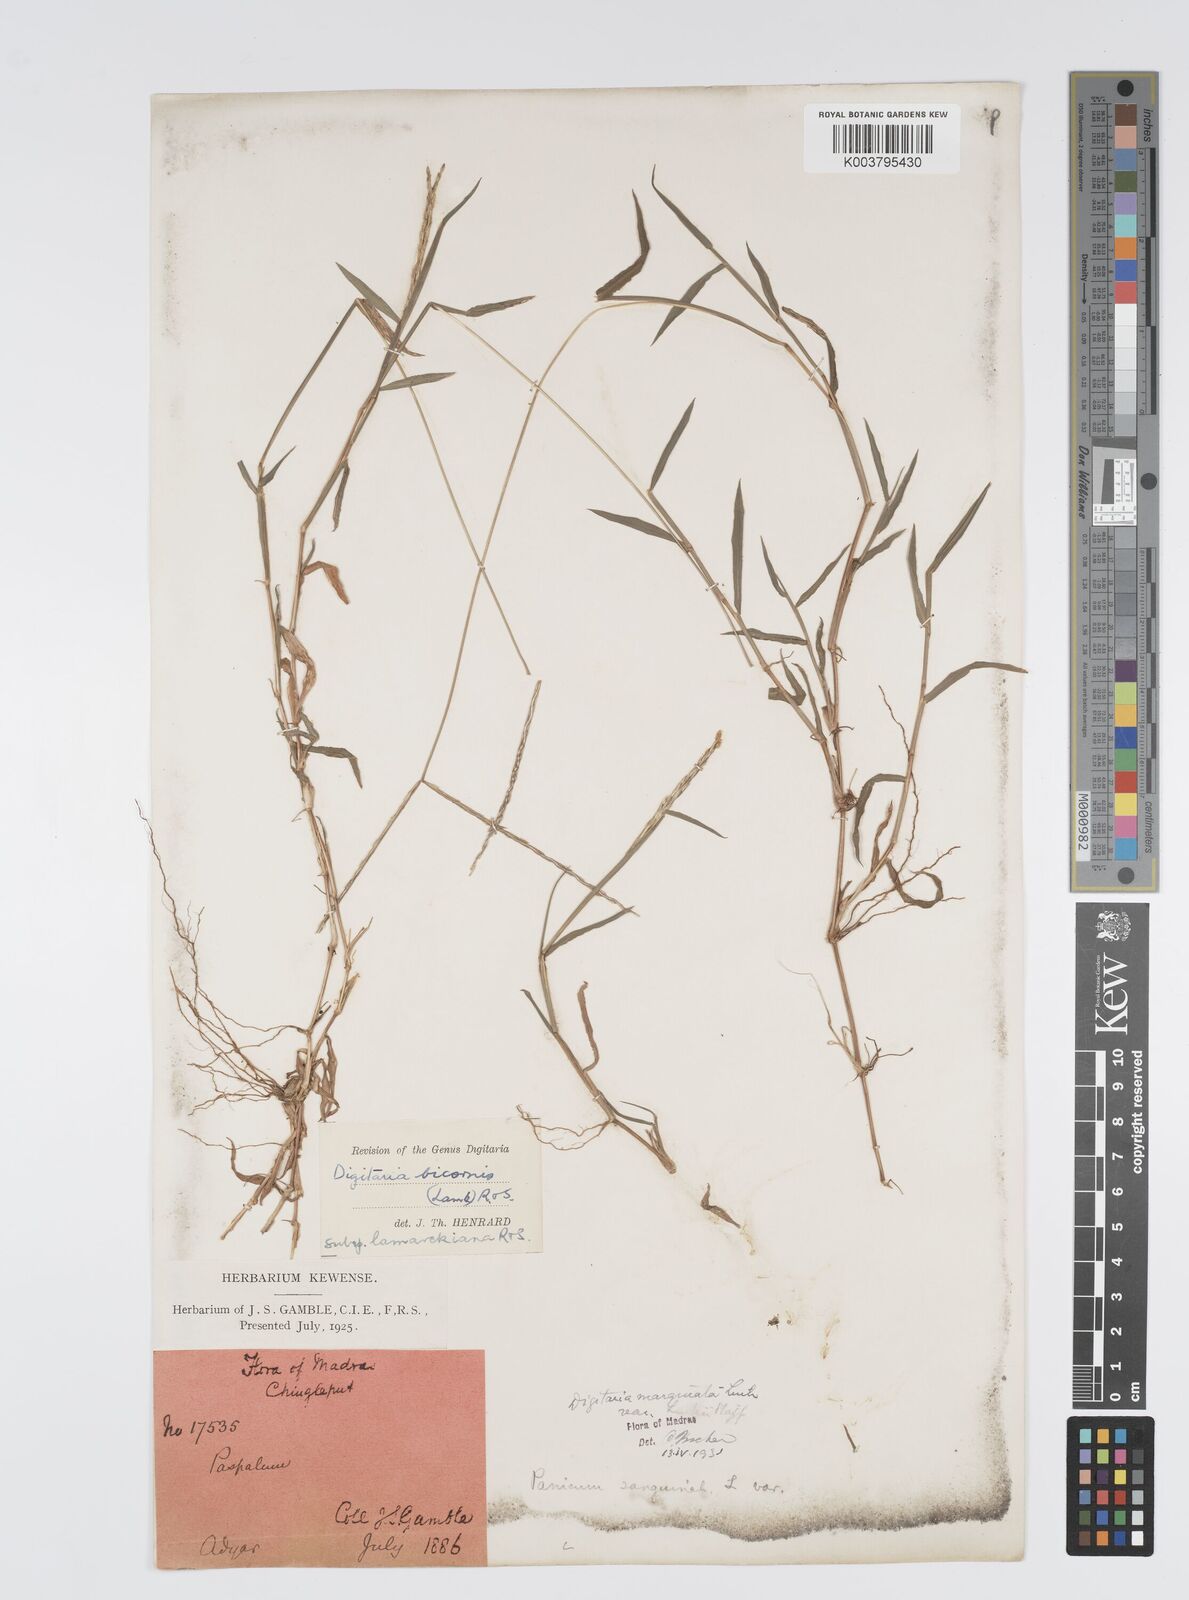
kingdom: Plantae
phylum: Tracheophyta
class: Liliopsida
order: Poales
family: Poaceae
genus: Digitaria
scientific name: Digitaria bicornis
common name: Asian crabgrass
